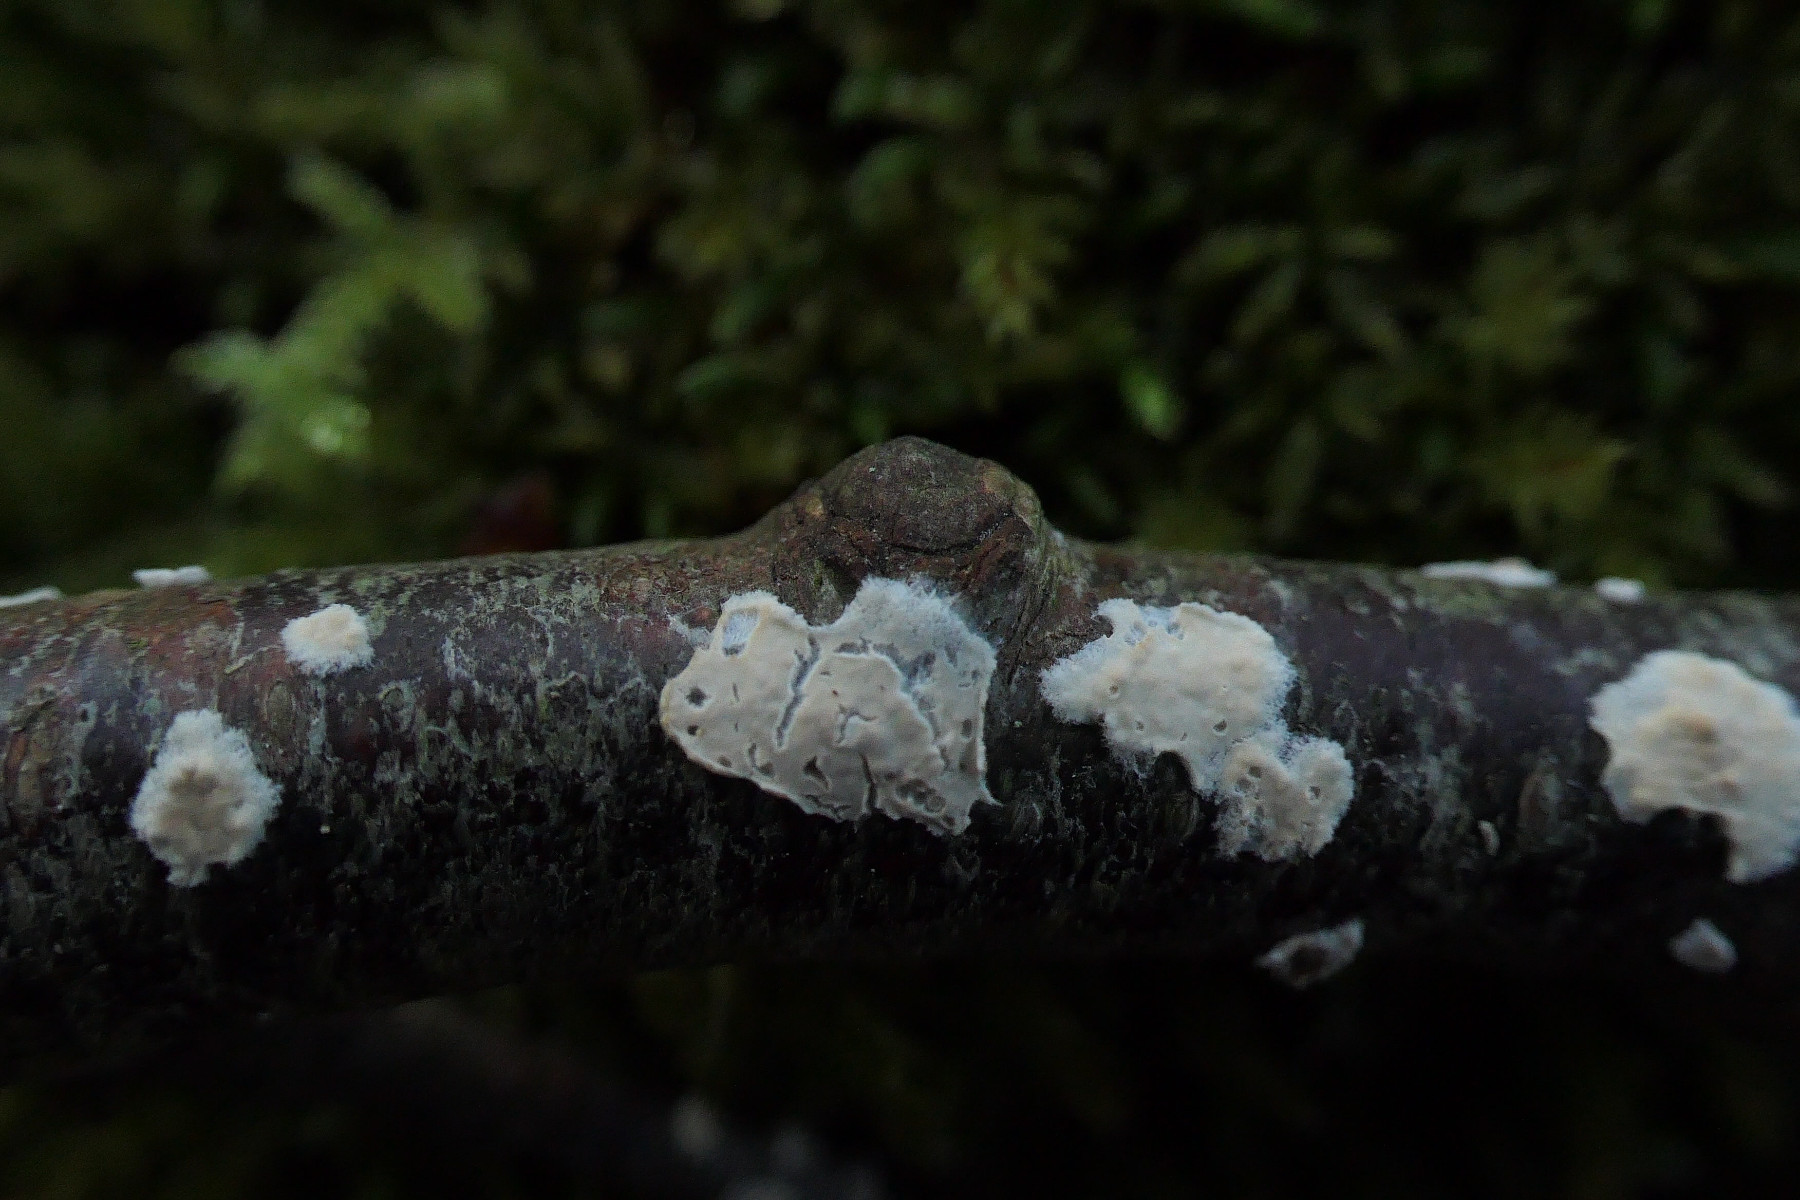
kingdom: Fungi
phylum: Basidiomycota
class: Agaricomycetes
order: Agaricales
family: Physalacriaceae
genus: Cylindrobasidium
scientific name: Cylindrobasidium evolvens
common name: sprækkehinde
